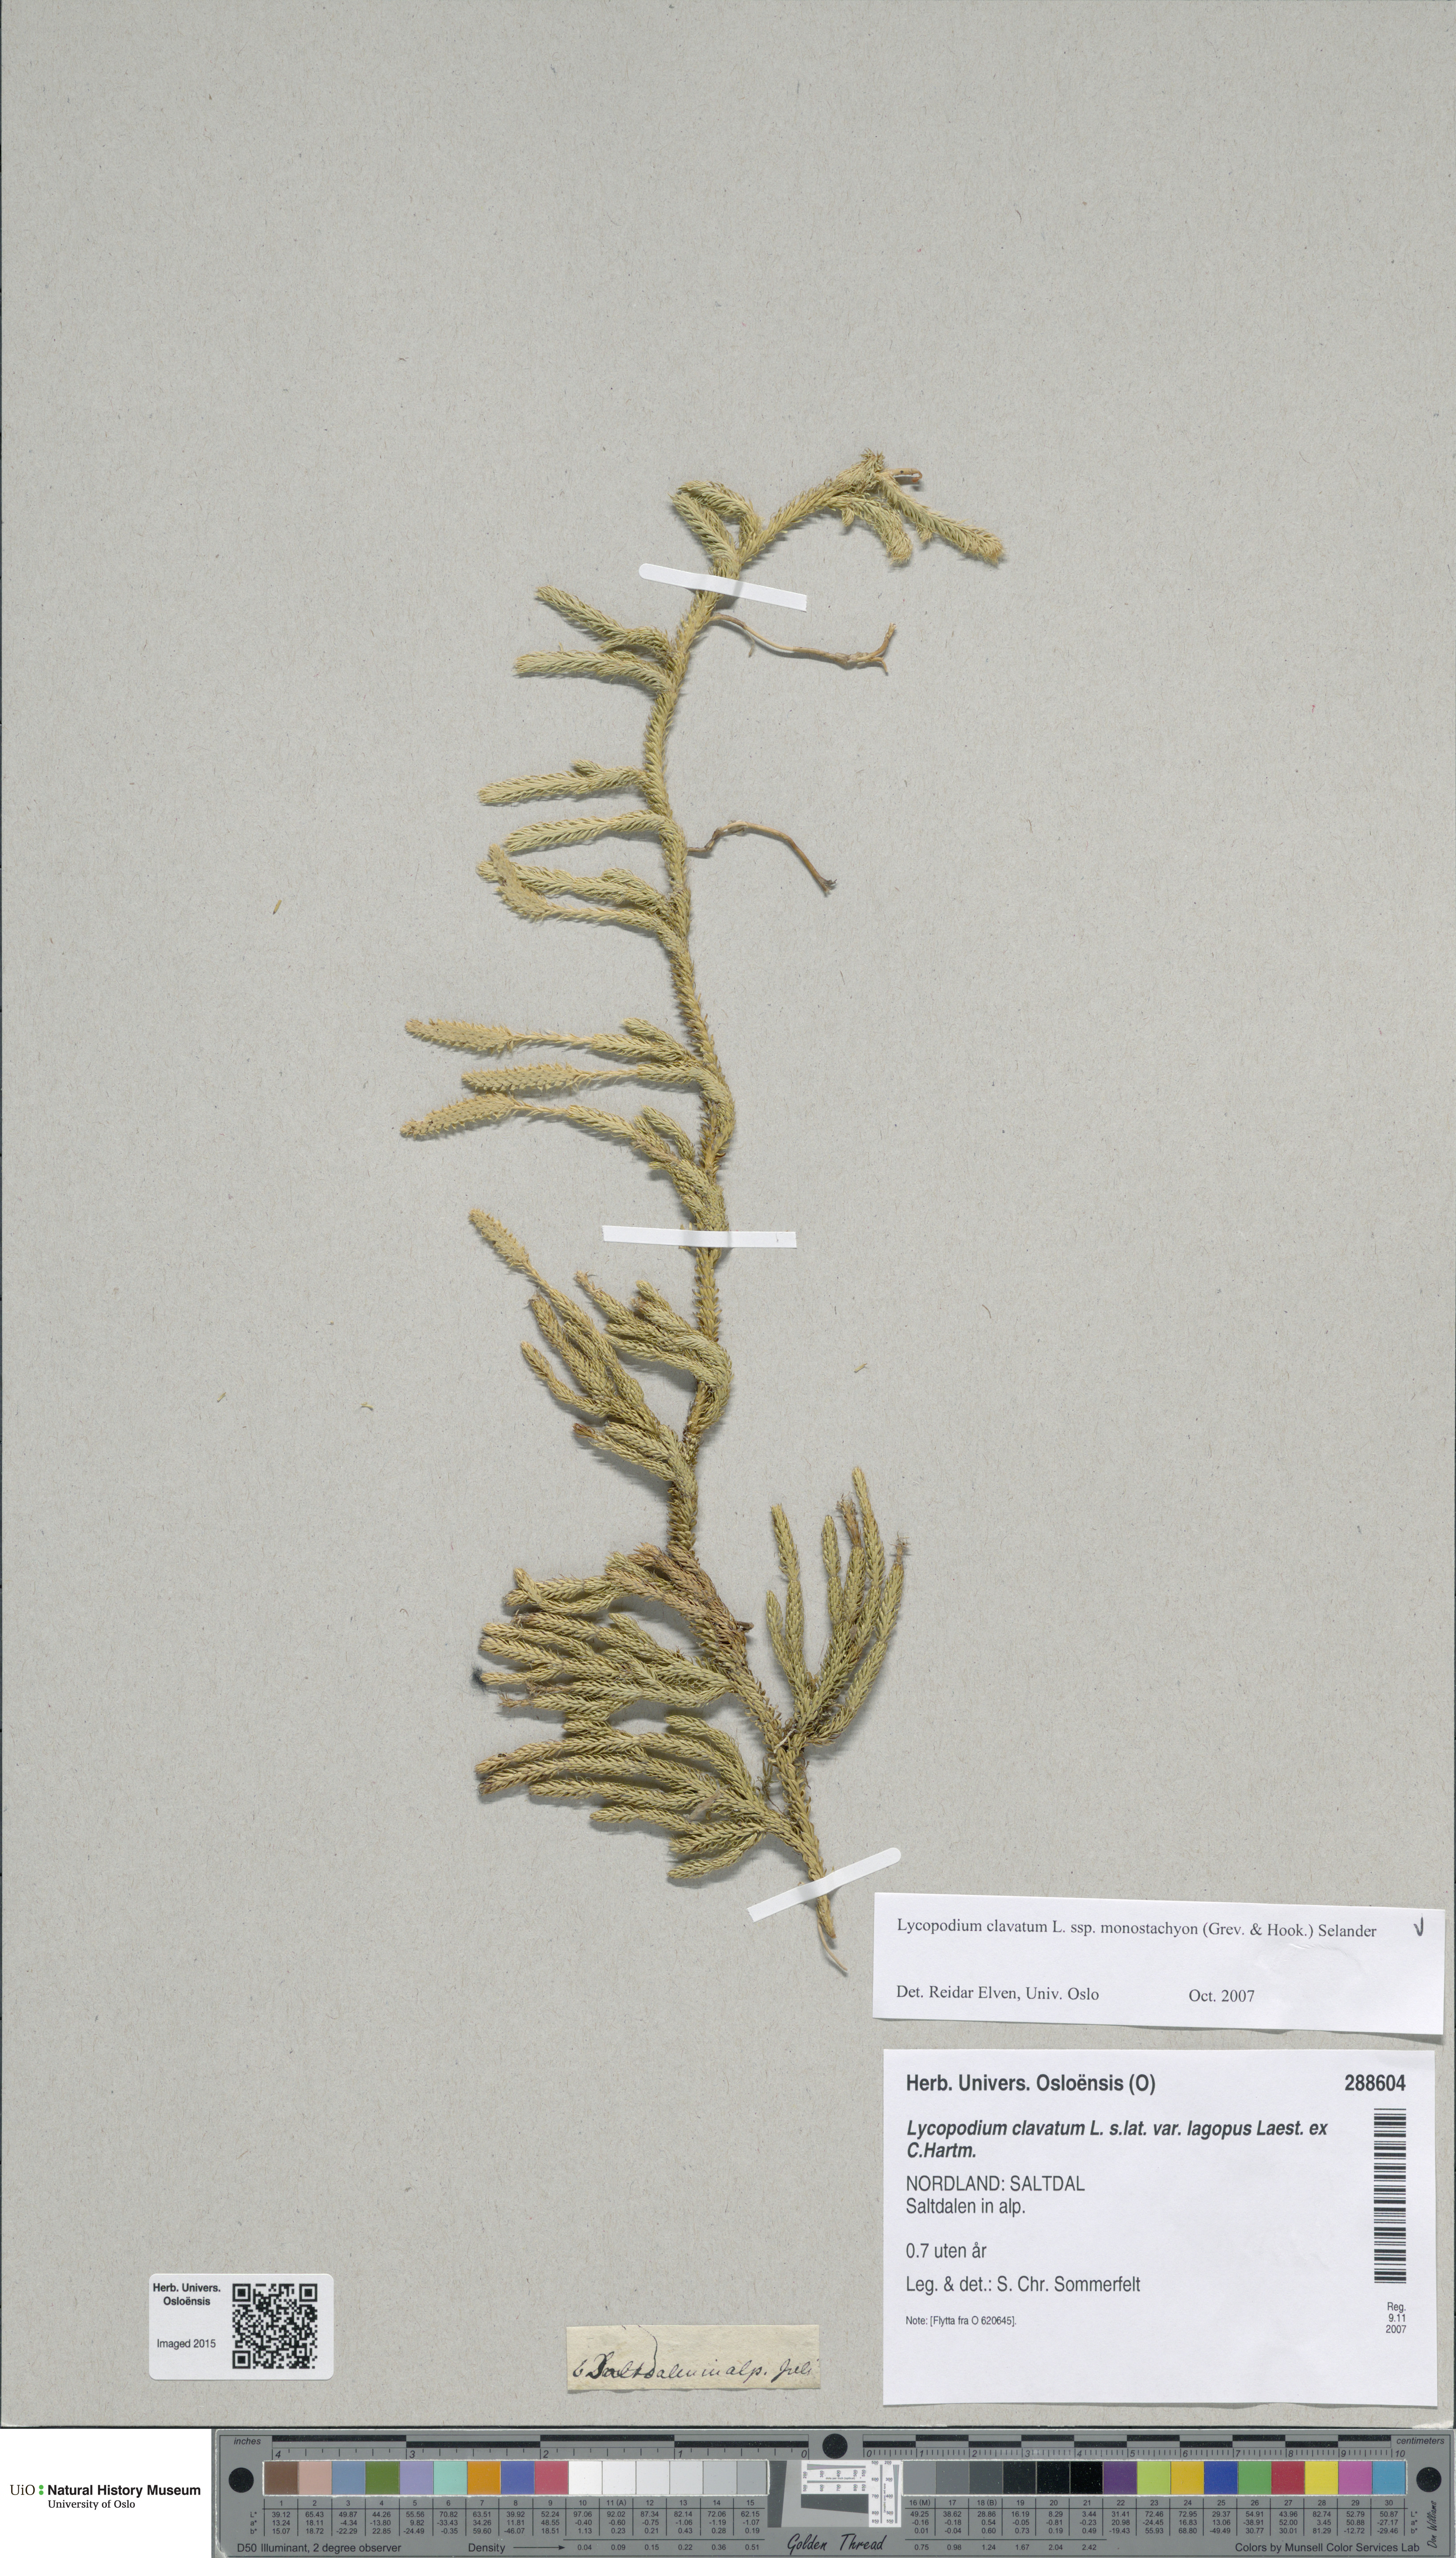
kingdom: Plantae
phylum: Tracheophyta
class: Lycopodiopsida
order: Lycopodiales
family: Lycopodiaceae
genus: Lycopodium
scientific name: Lycopodium lagopus
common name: One-cone clubmoss
